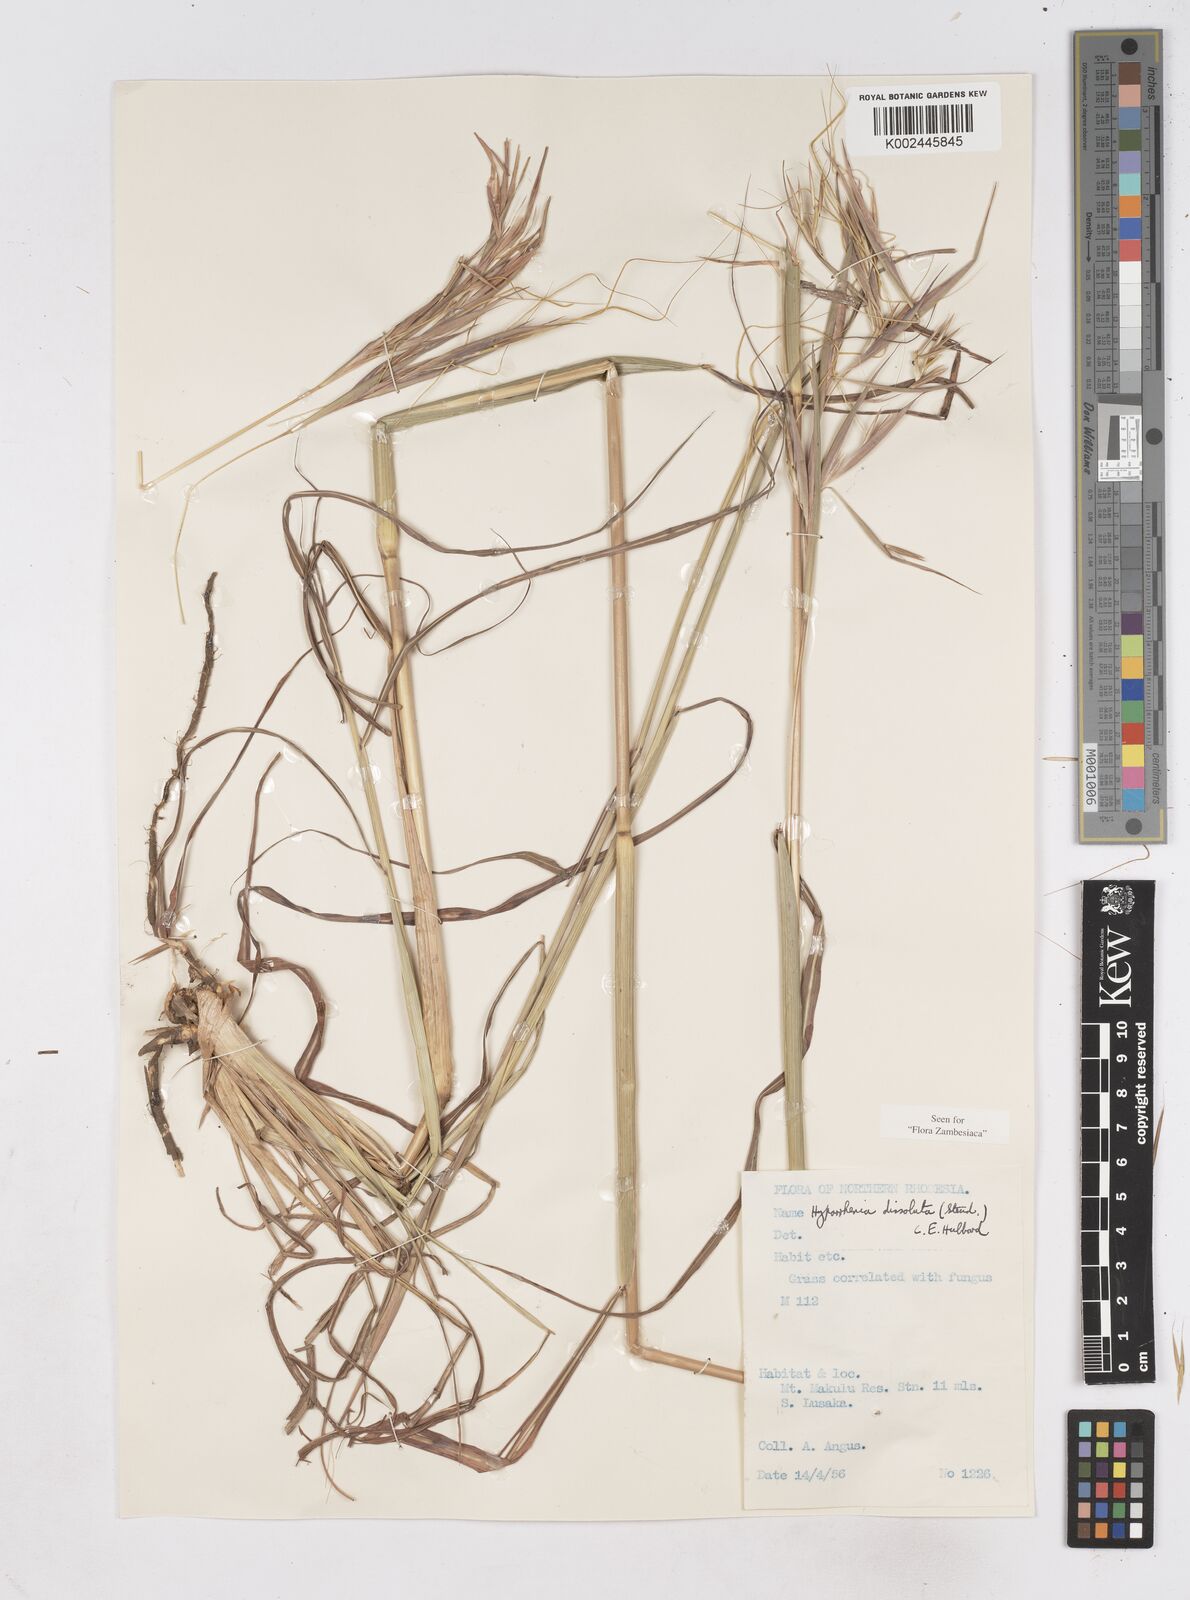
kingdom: Plantae
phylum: Tracheophyta
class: Liliopsida
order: Poales
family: Poaceae
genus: Hyperthelia
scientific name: Hyperthelia dissoluta
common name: Yellow thatching grass
